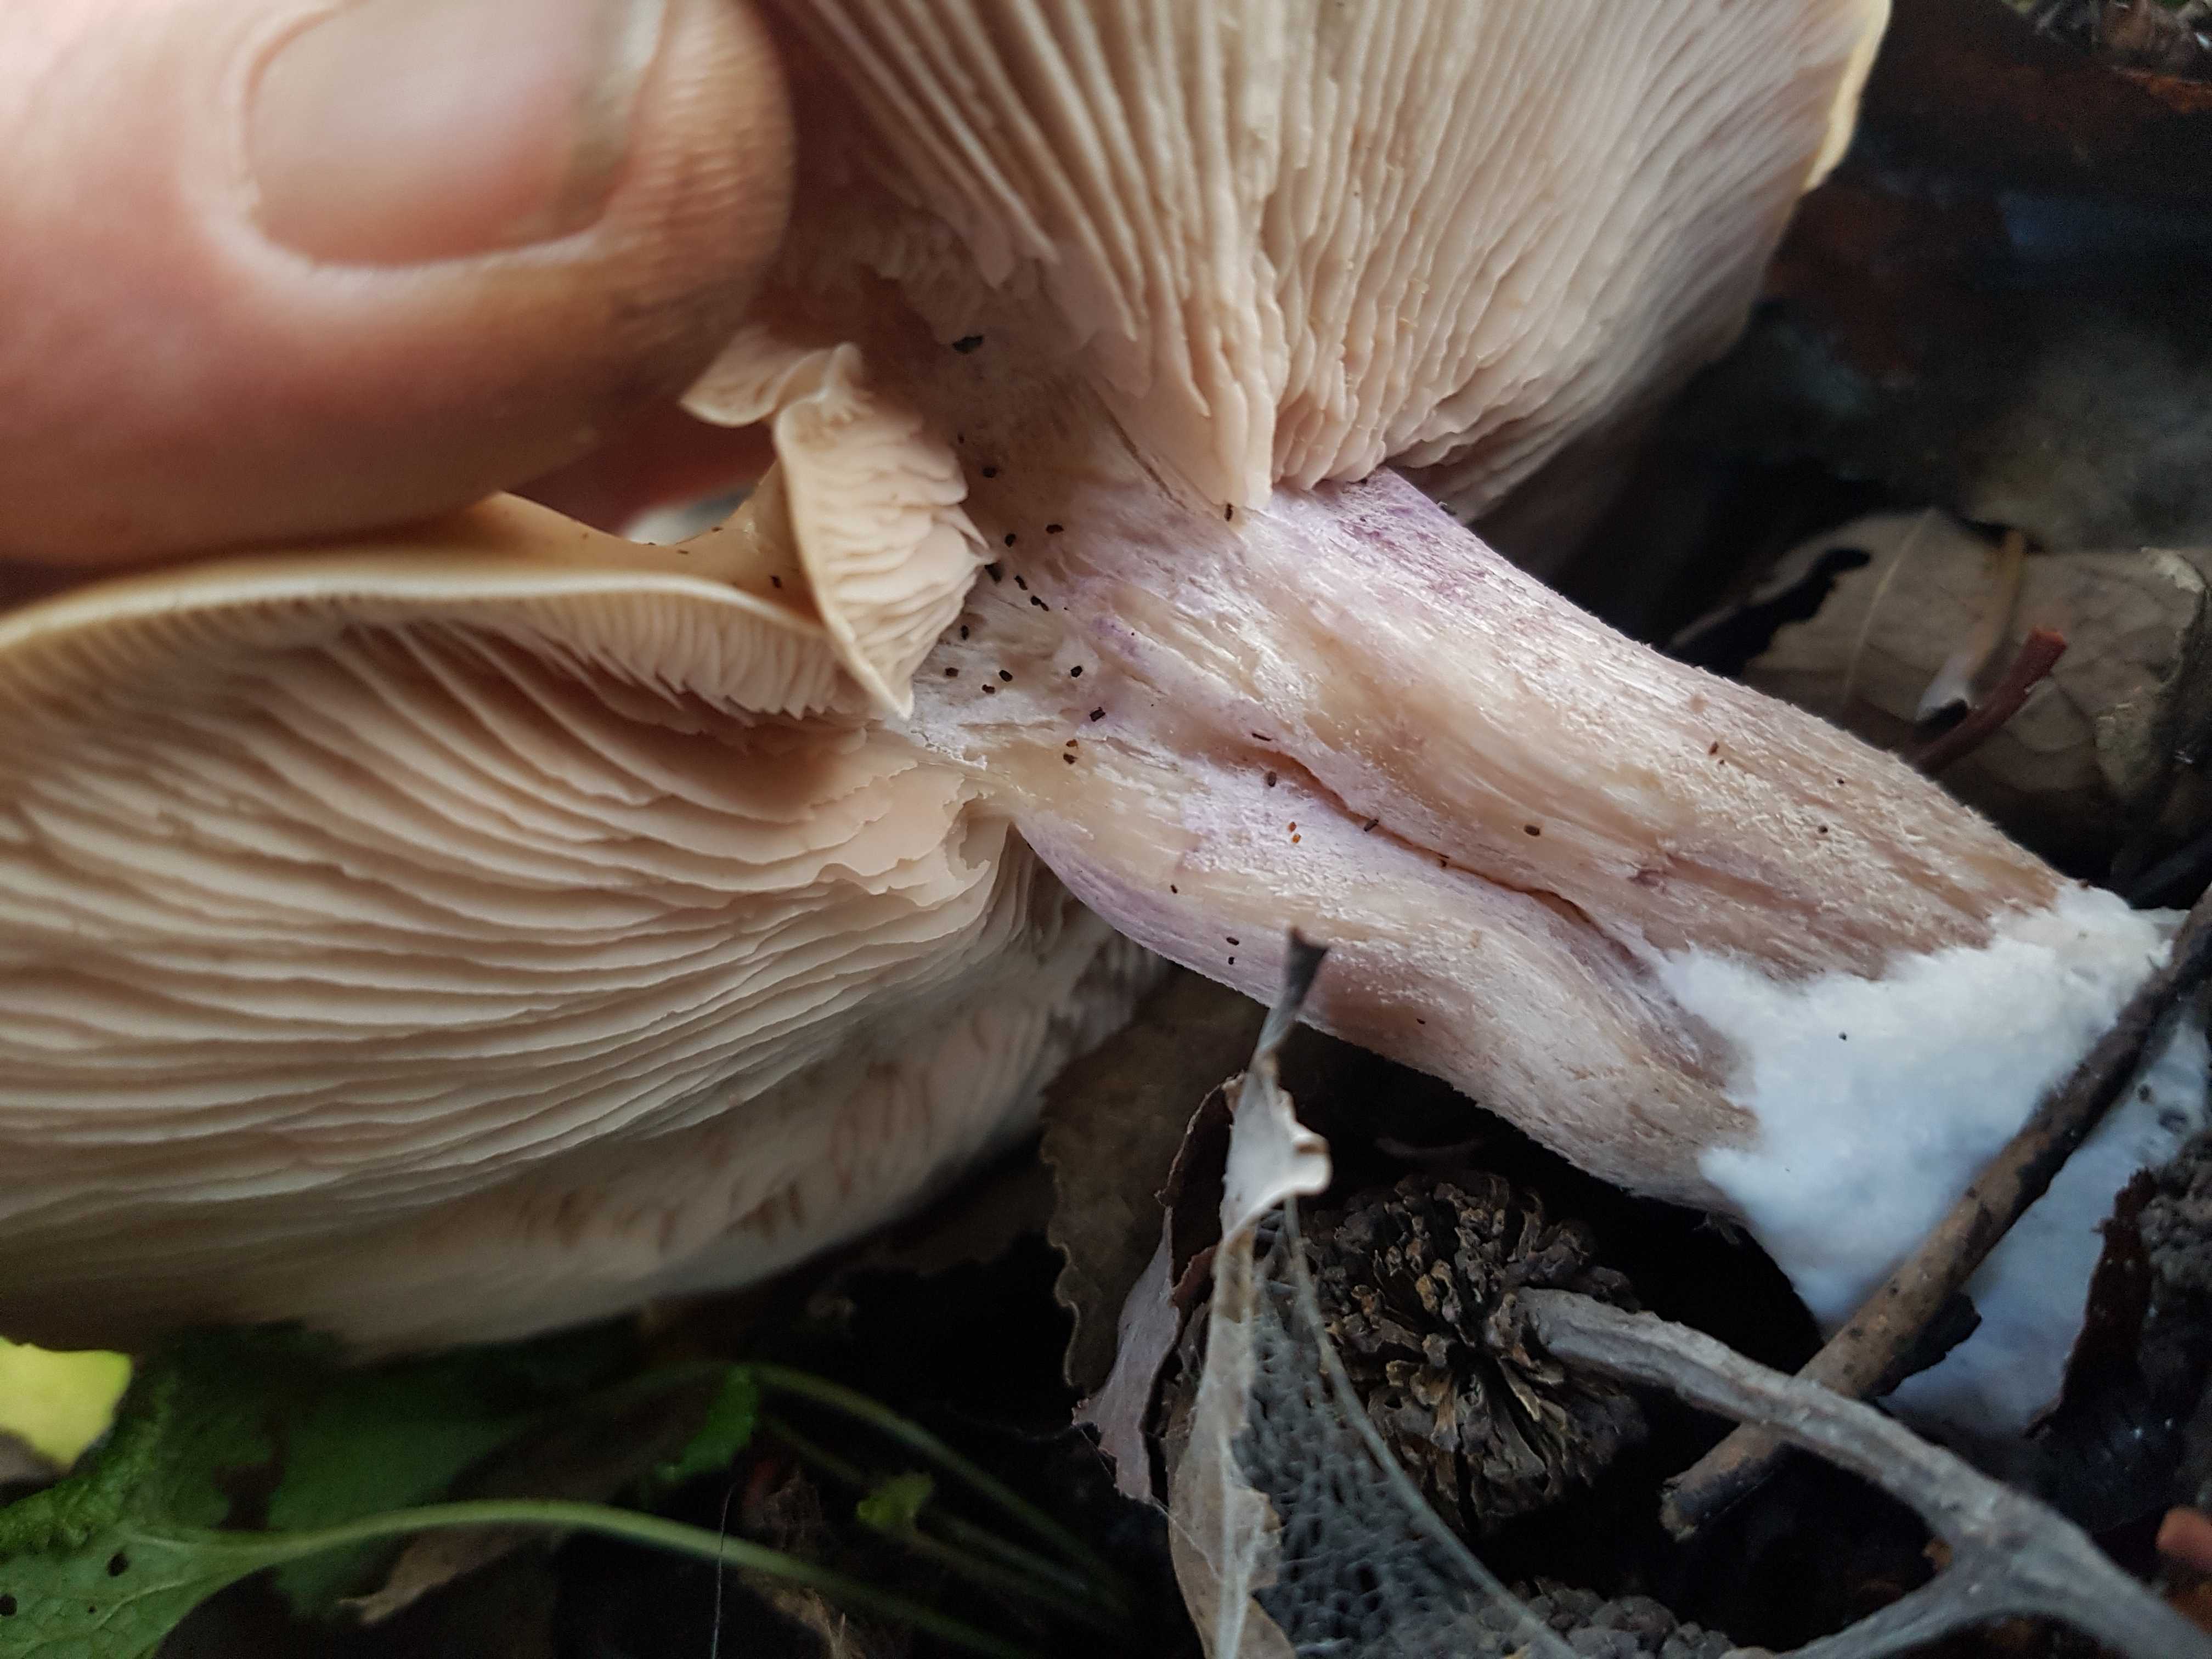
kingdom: Fungi
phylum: Basidiomycota
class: Agaricomycetes
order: Agaricales
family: Tricholomataceae
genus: Lepista
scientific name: Lepista personata
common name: bleg hekseringshat
